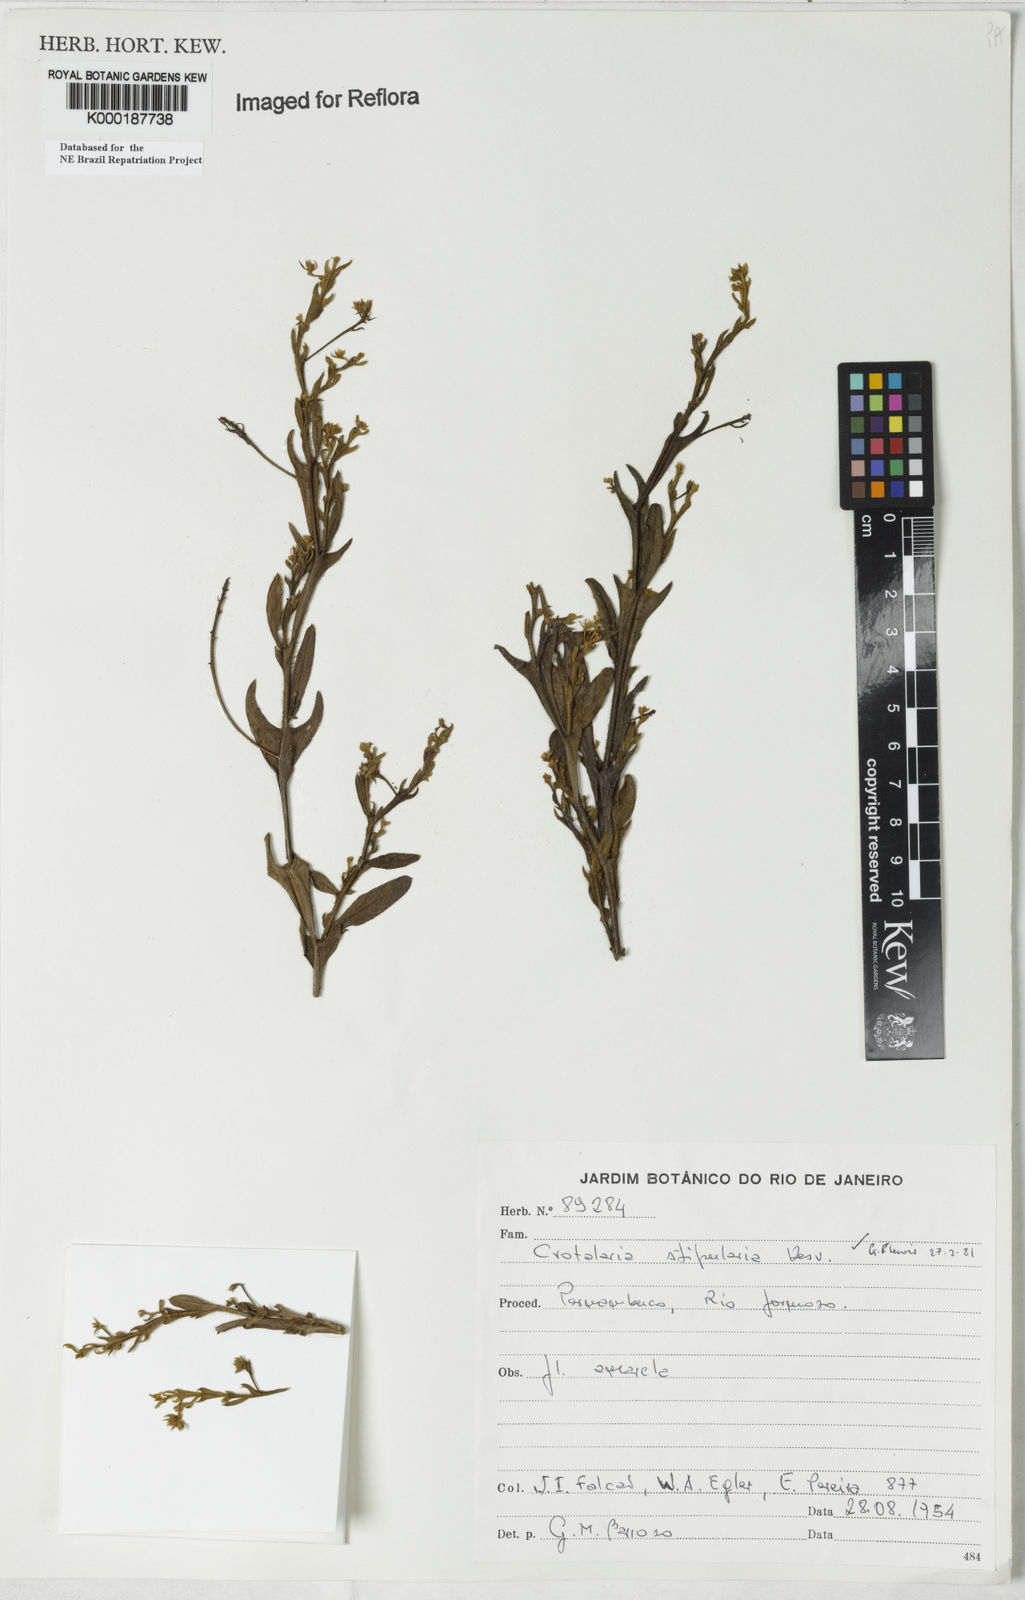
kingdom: Plantae
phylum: Tracheophyta
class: Magnoliopsida
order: Fabales
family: Fabaceae
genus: Crotalaria
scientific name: Crotalaria stipularia
